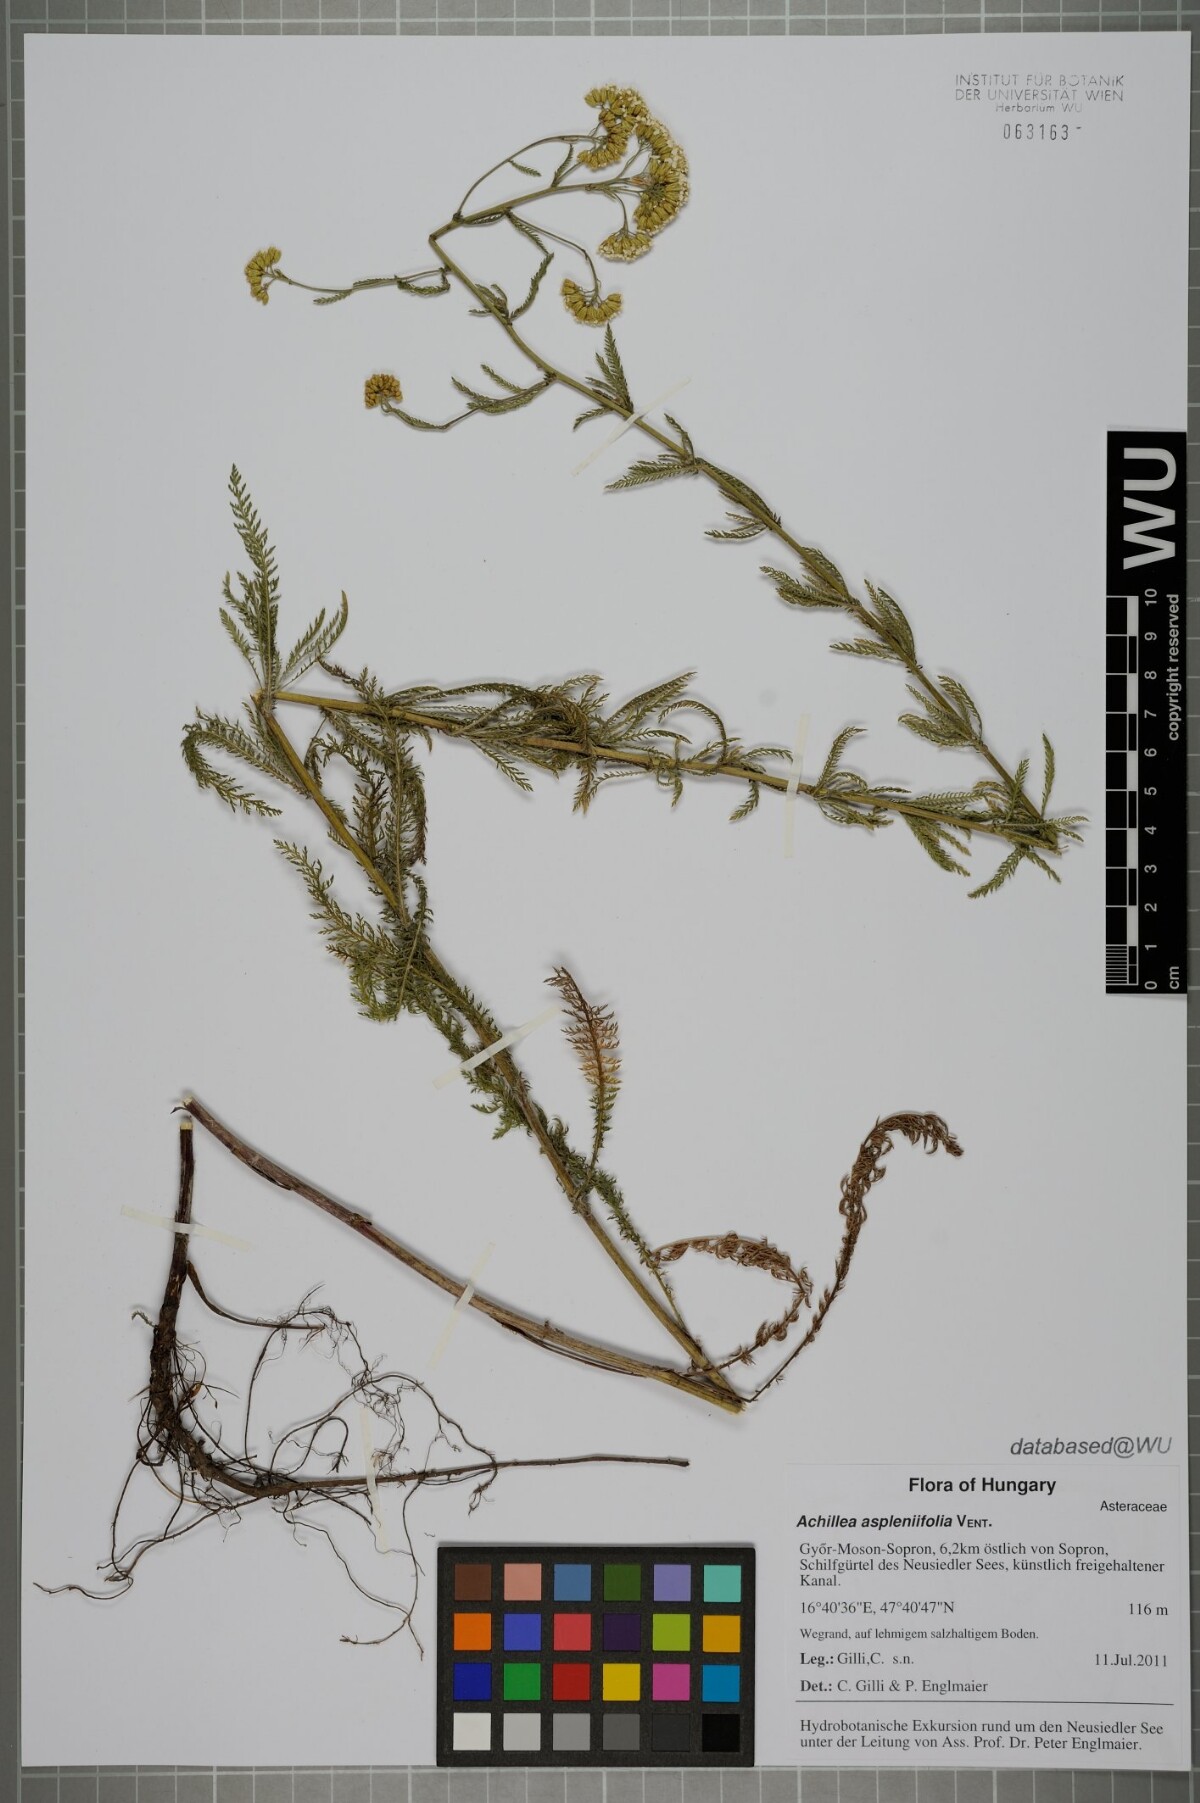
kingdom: Plantae
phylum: Tracheophyta
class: Magnoliopsida
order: Asterales
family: Asteraceae
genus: Achillea
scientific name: Achillea aspleniifolia
